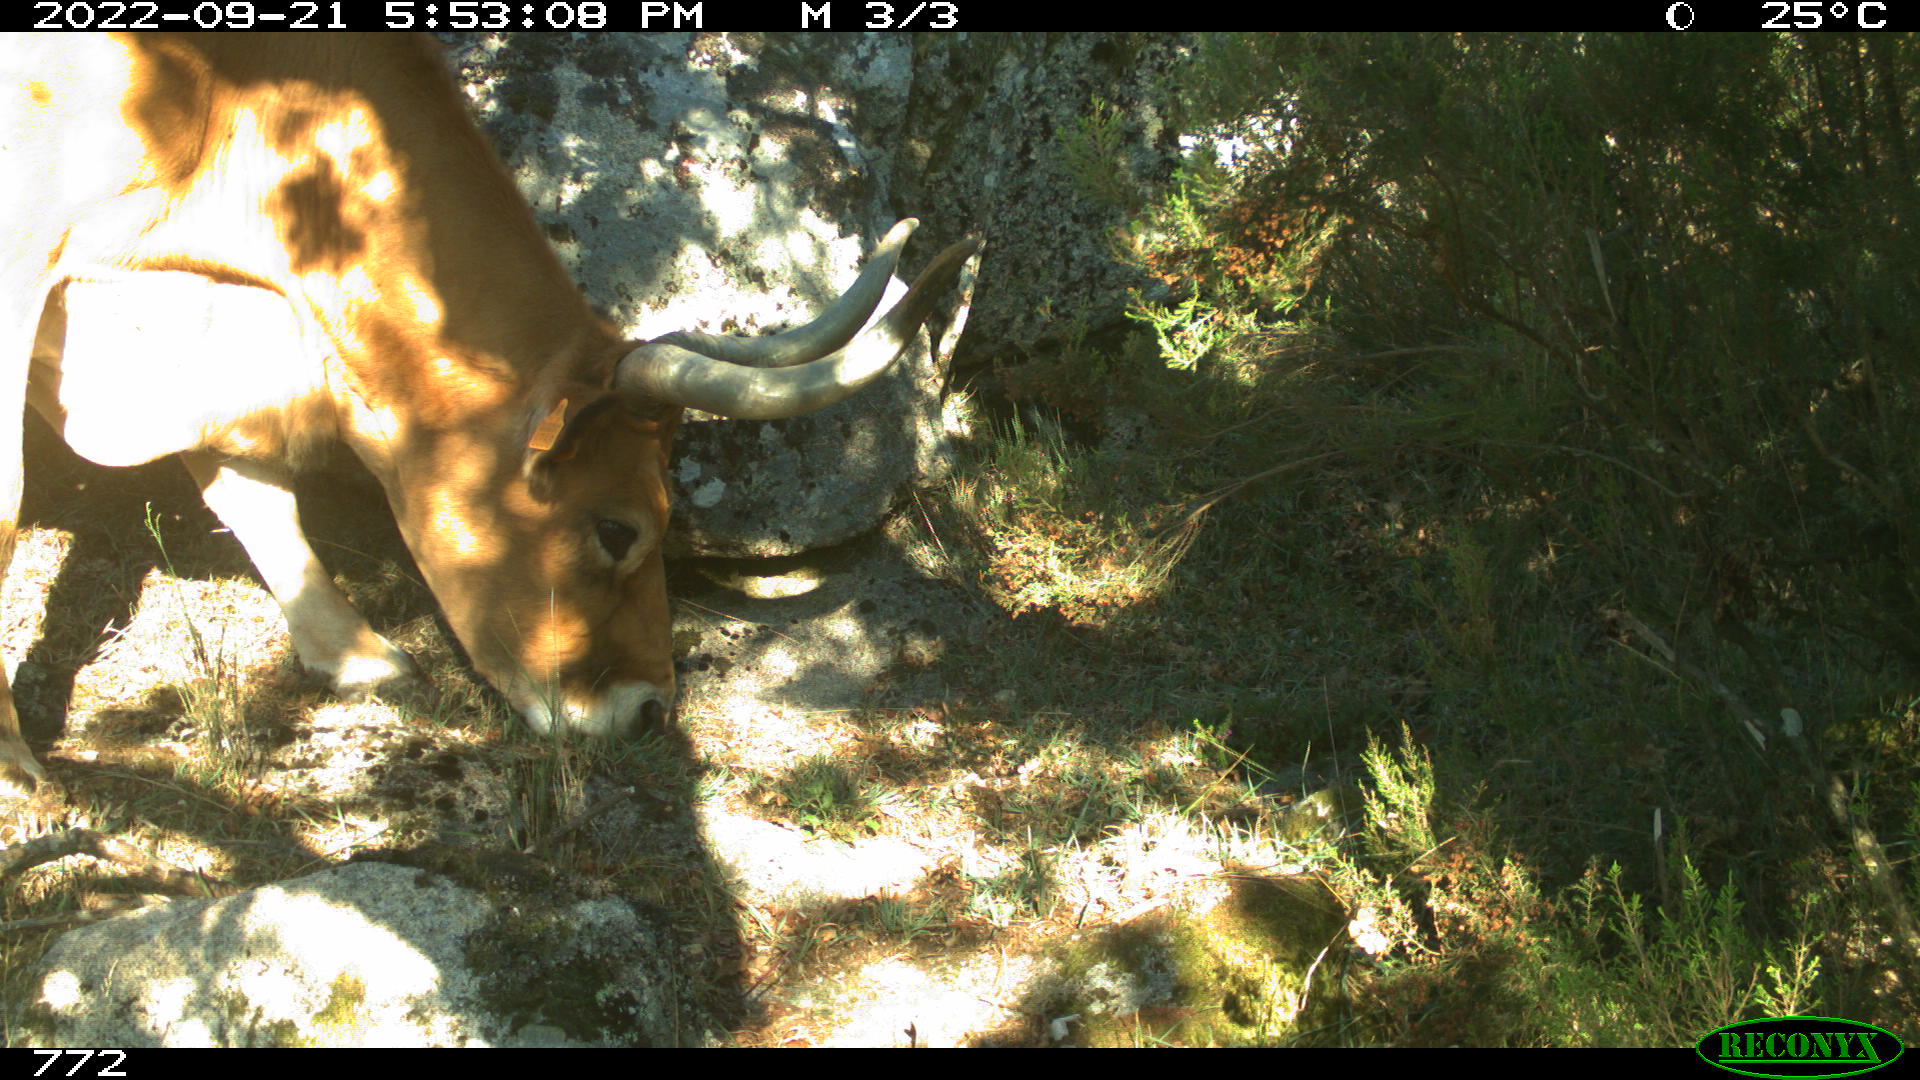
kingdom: Animalia
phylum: Chordata
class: Mammalia
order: Artiodactyla
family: Bovidae
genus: Bos
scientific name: Bos taurus
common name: Domesticated cattle
